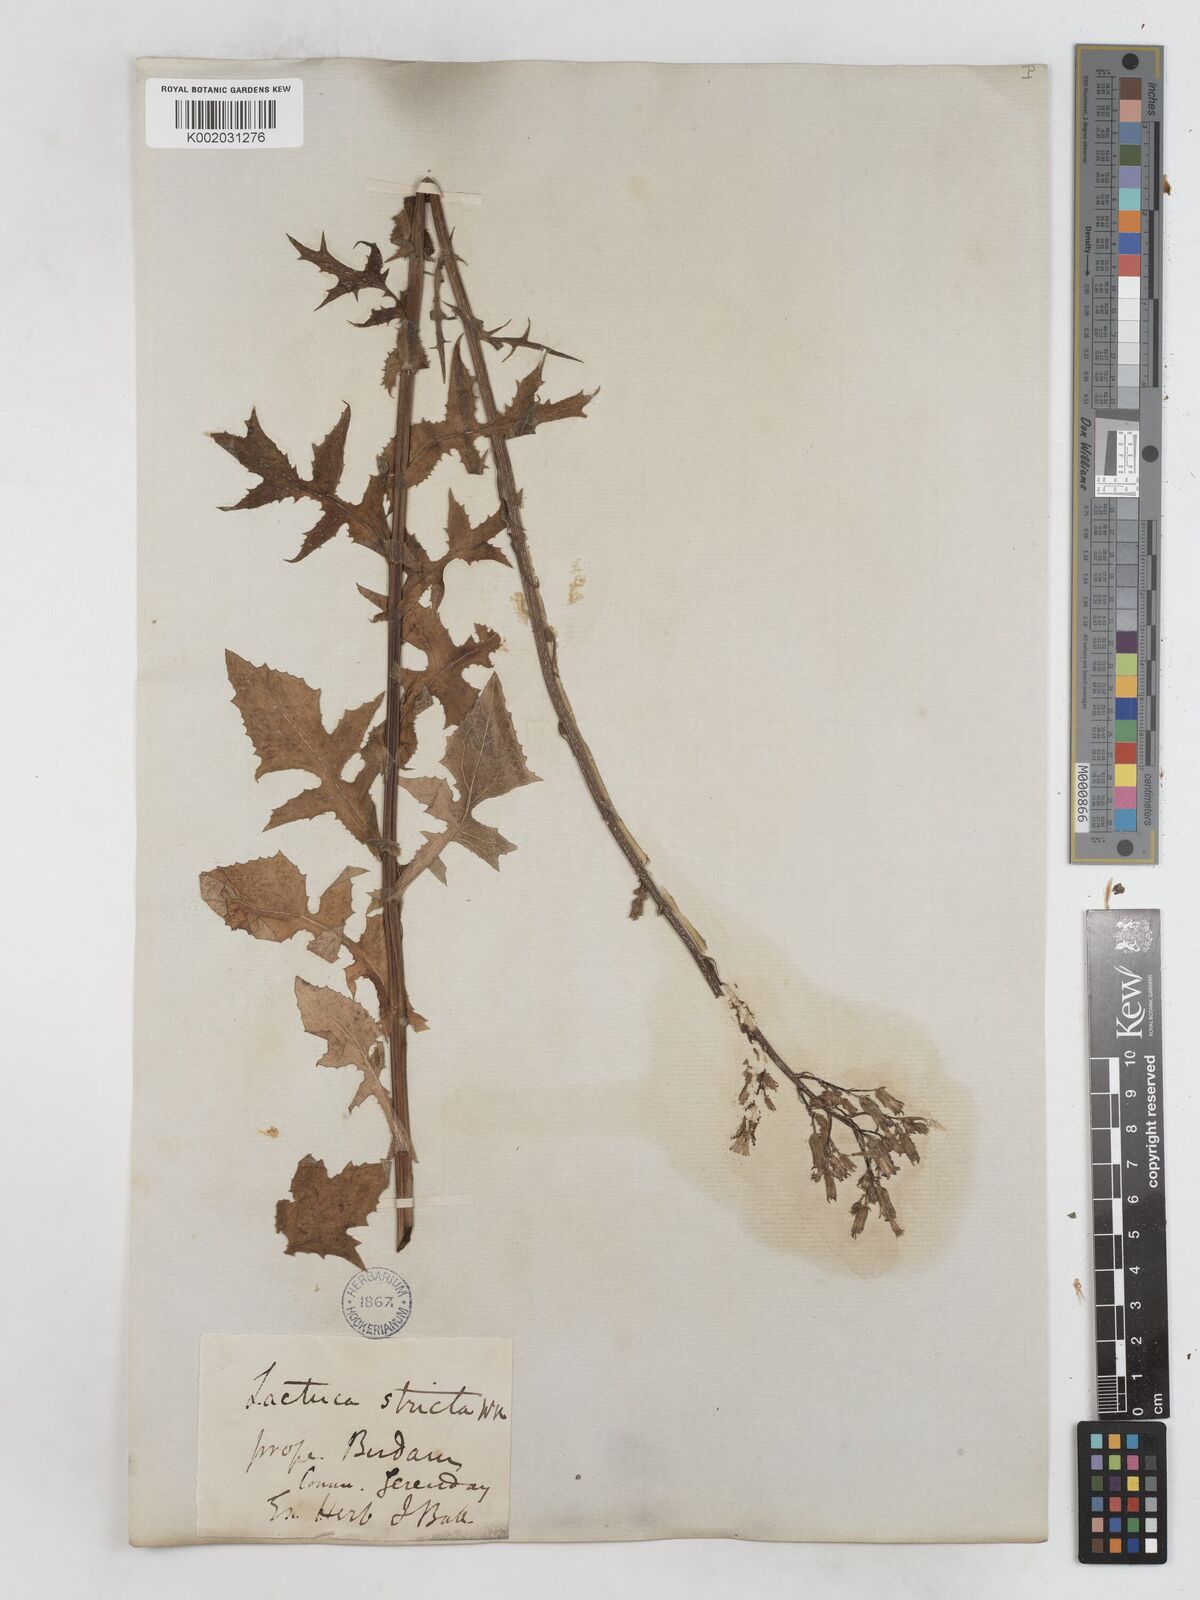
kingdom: Plantae
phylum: Tracheophyta
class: Magnoliopsida
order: Asterales
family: Asteraceae
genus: Lactuca
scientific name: Lactuca quercina
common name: Wild lettuce
